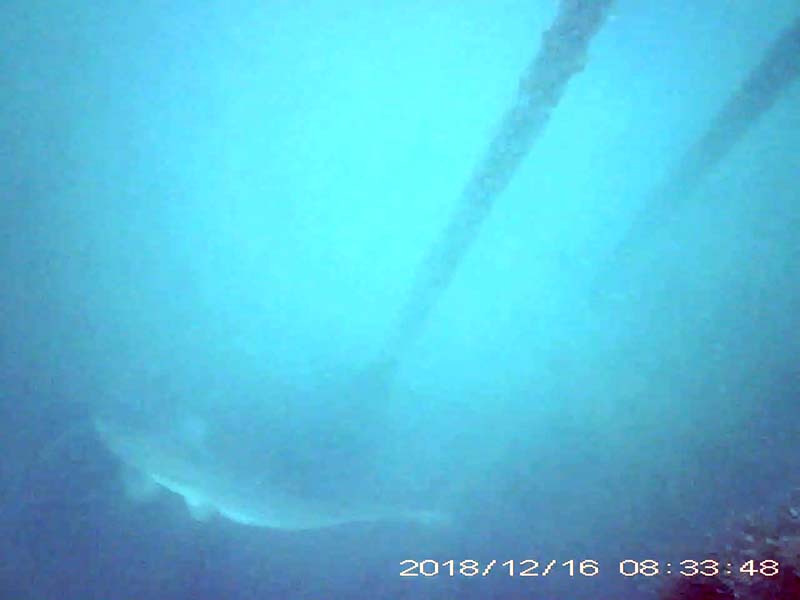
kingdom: Animalia
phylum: Chordata
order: Siluriformes
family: Siluridae
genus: Silurus
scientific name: Silurus
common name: ナマズ
